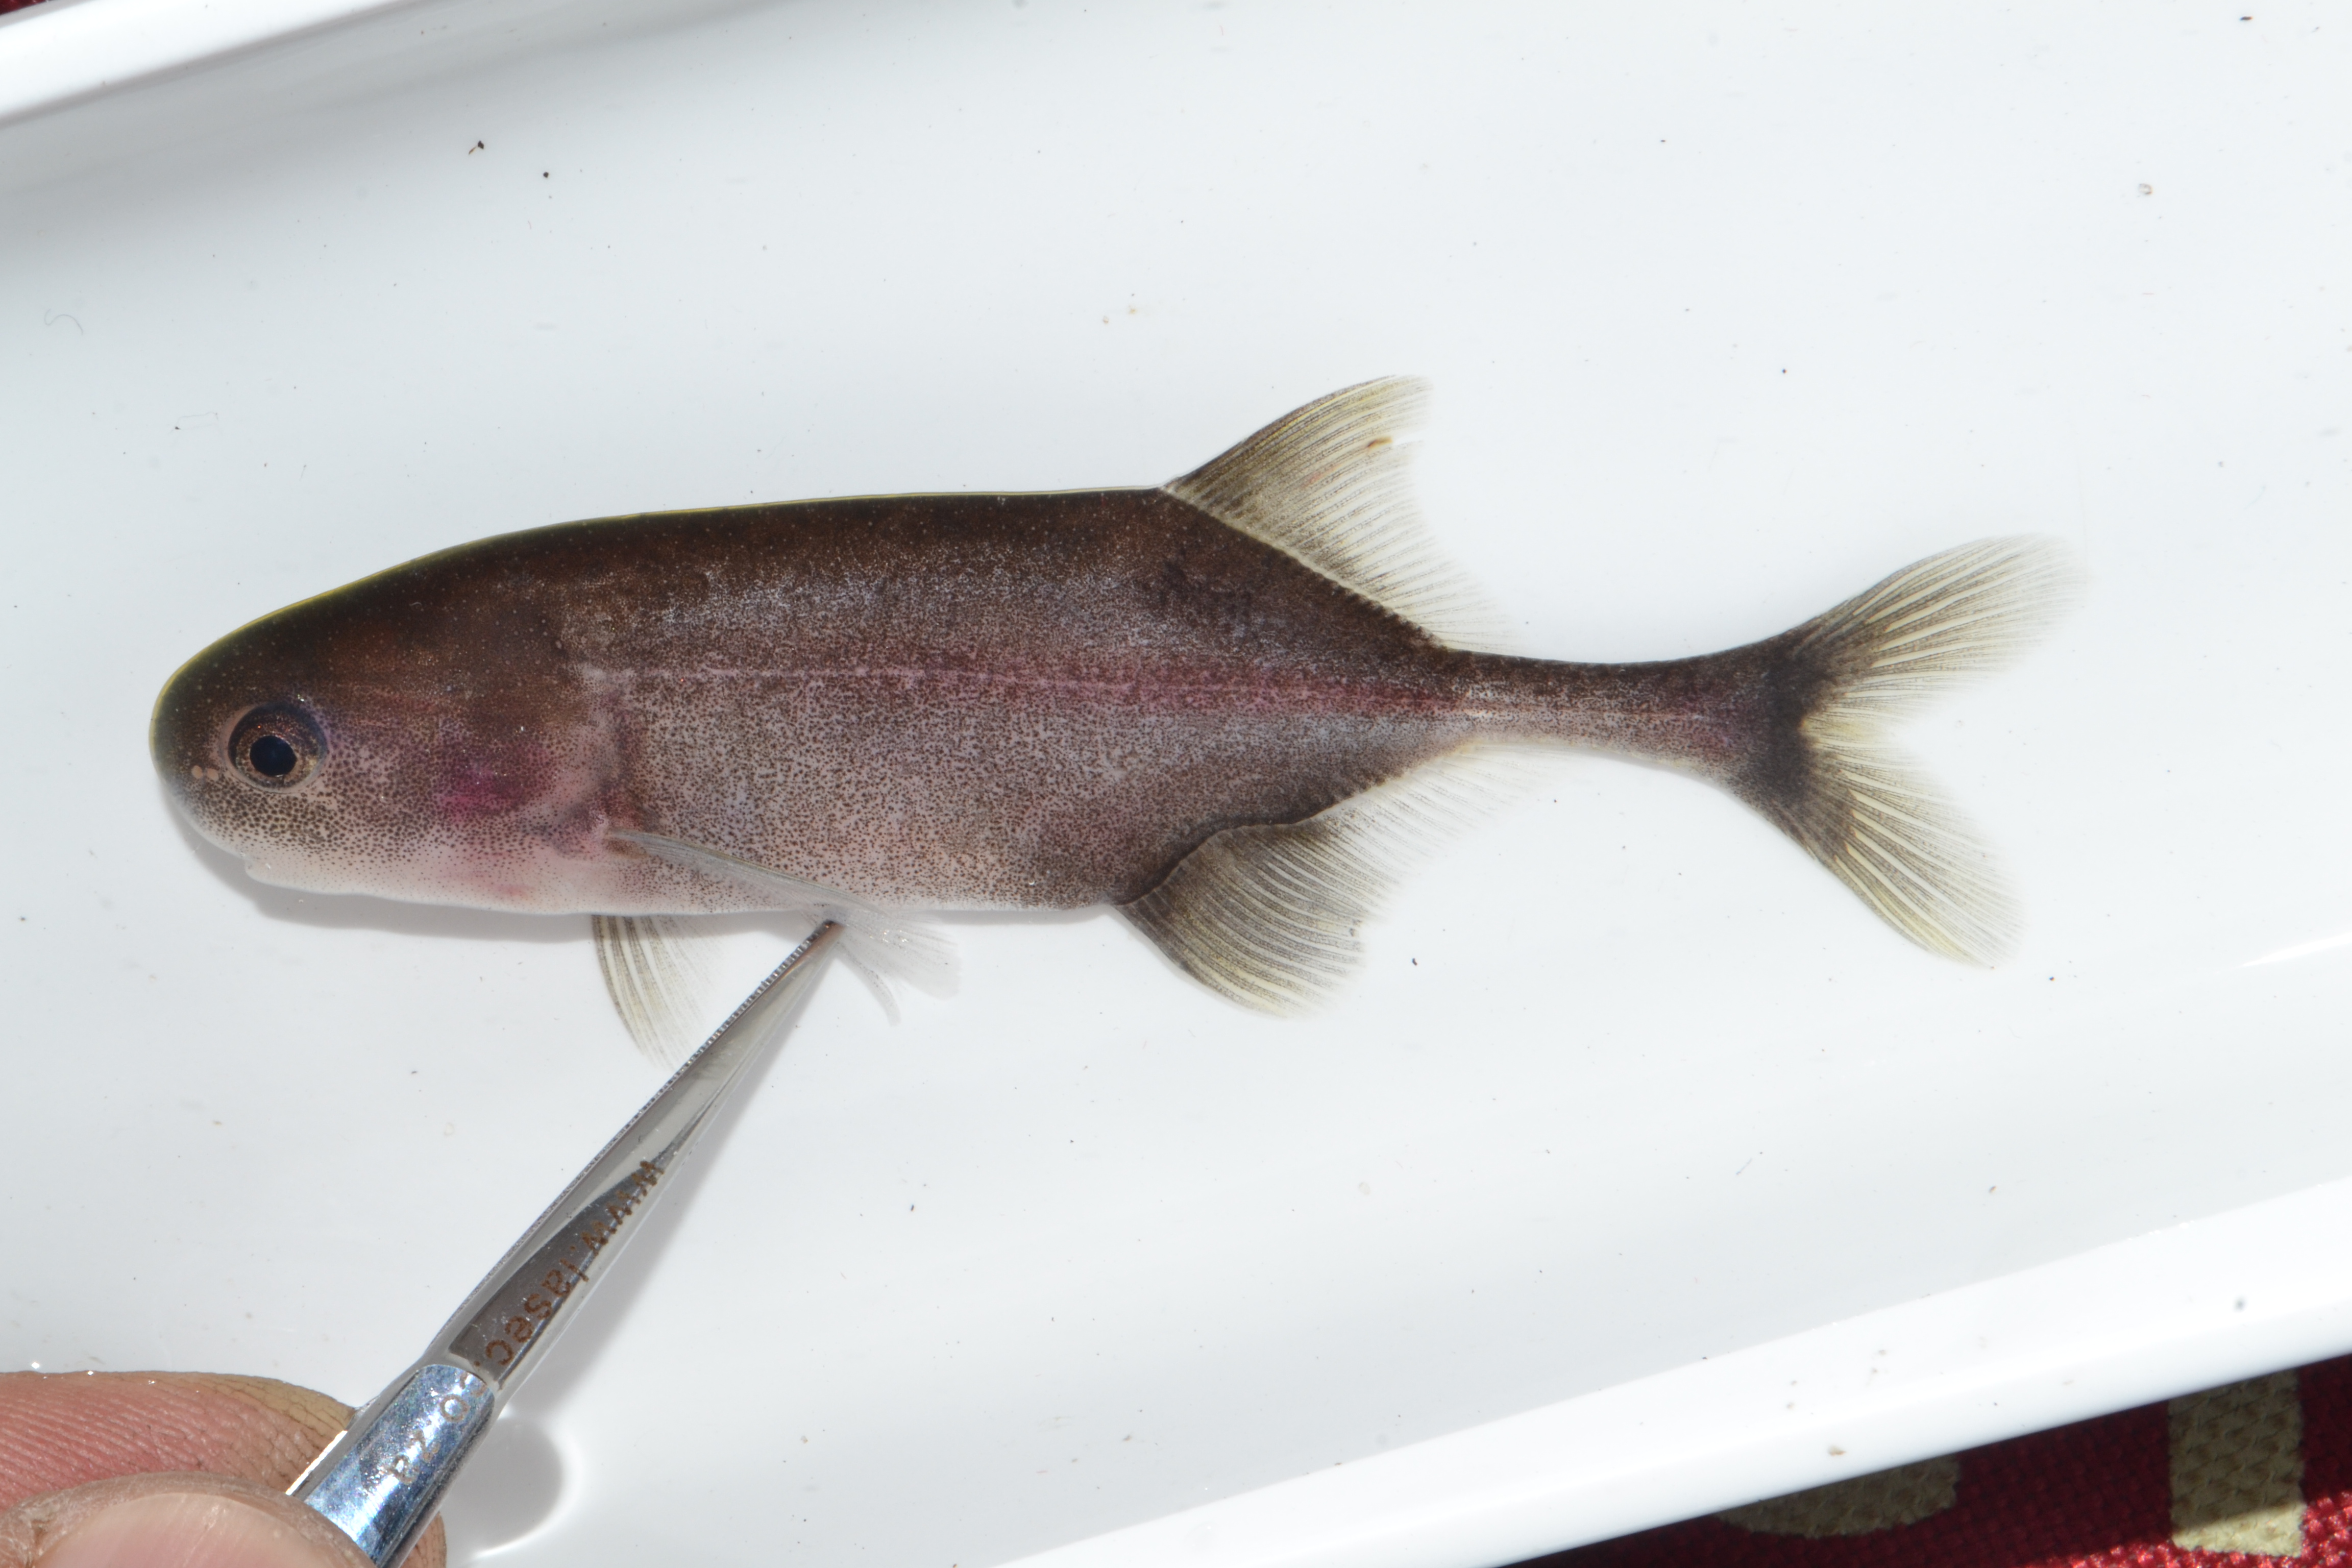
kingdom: Animalia
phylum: Chordata
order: Osteoglossiformes
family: Mormyridae
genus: Petrocephalus
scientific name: Petrocephalus
